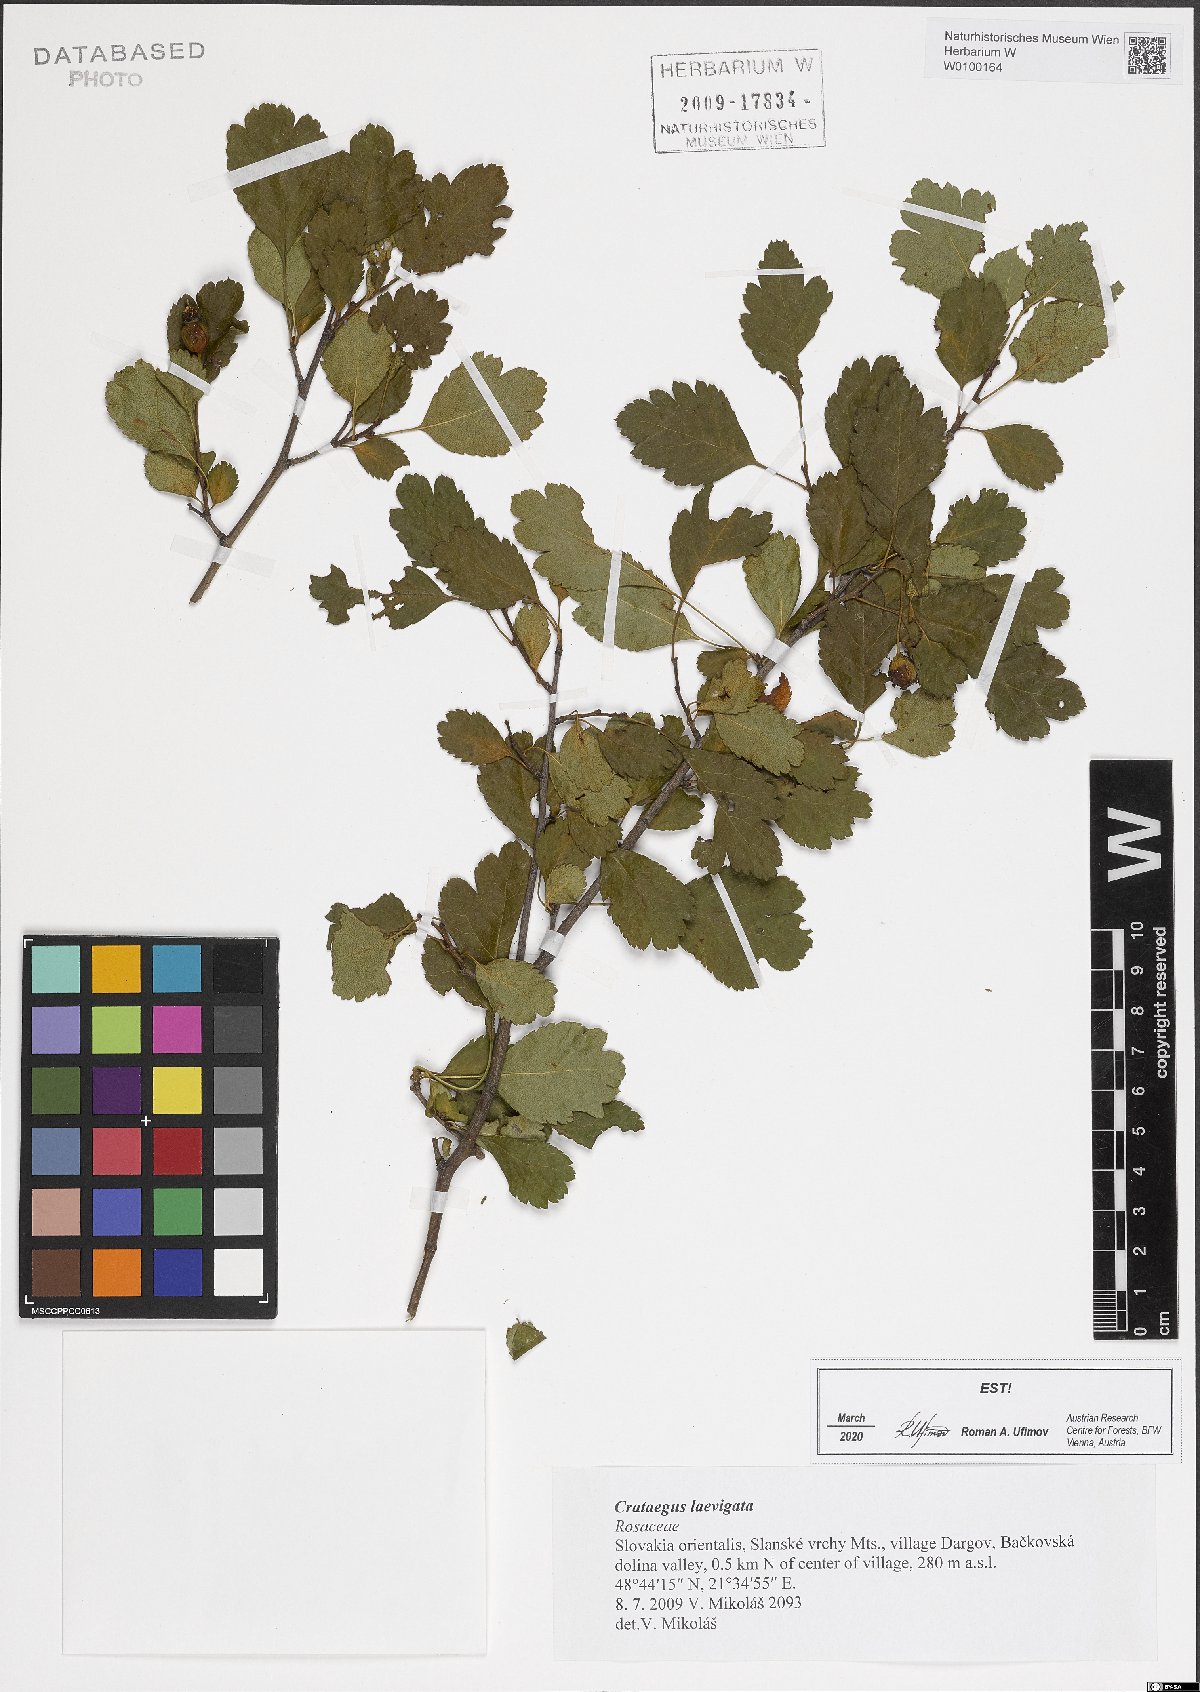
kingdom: Plantae
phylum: Tracheophyta
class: Magnoliopsida
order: Rosales
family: Rosaceae
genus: Crataegus
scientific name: Crataegus laevigata
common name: Midland hawthorn
